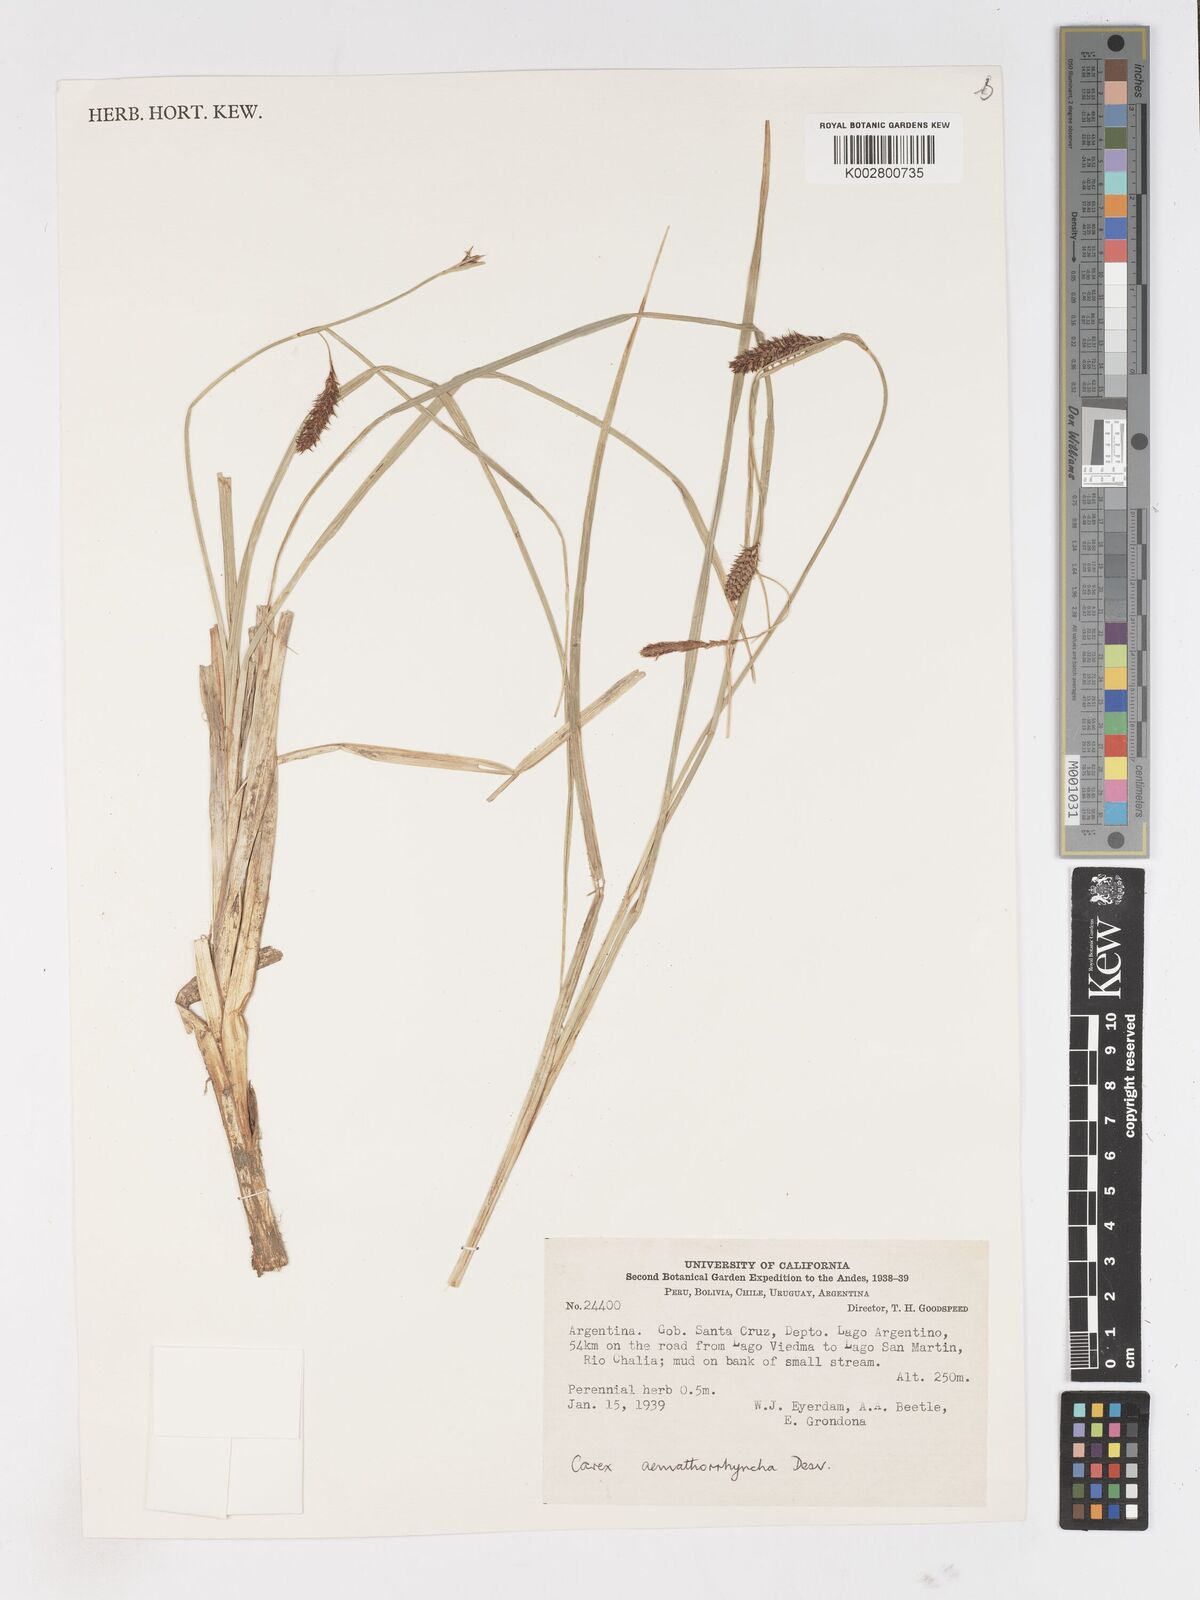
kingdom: Plantae
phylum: Tracheophyta
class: Liliopsida
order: Poales
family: Cyperaceae
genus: Carex
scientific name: Carex aematorhyncha
